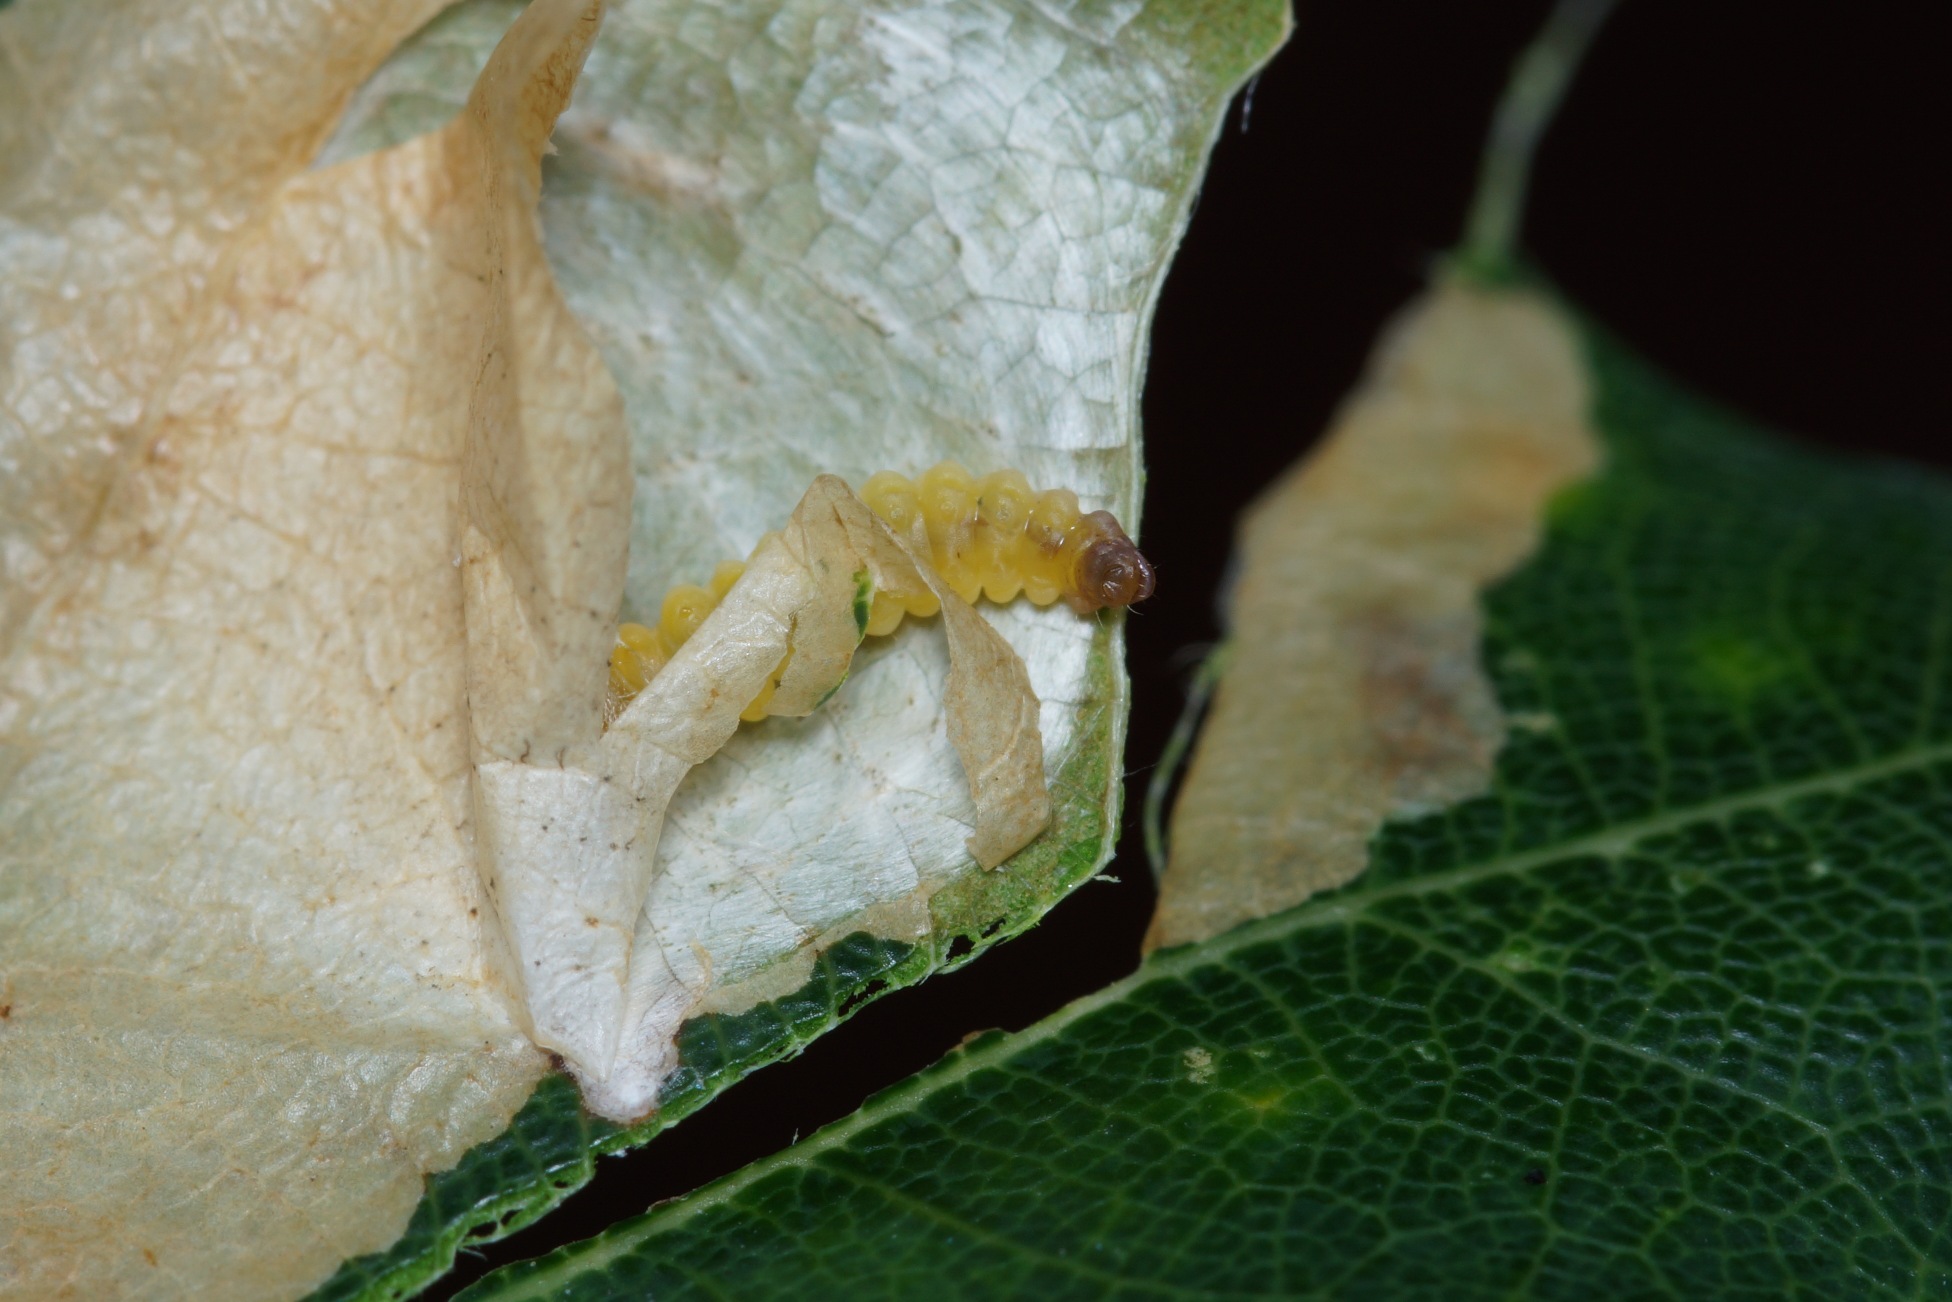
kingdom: Animalia
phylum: Arthropoda
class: Insecta
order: Lepidoptera
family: Tischeriidae
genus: Tischeria
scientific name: Tischeria ekebladella
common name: Egepandeduskmøl
